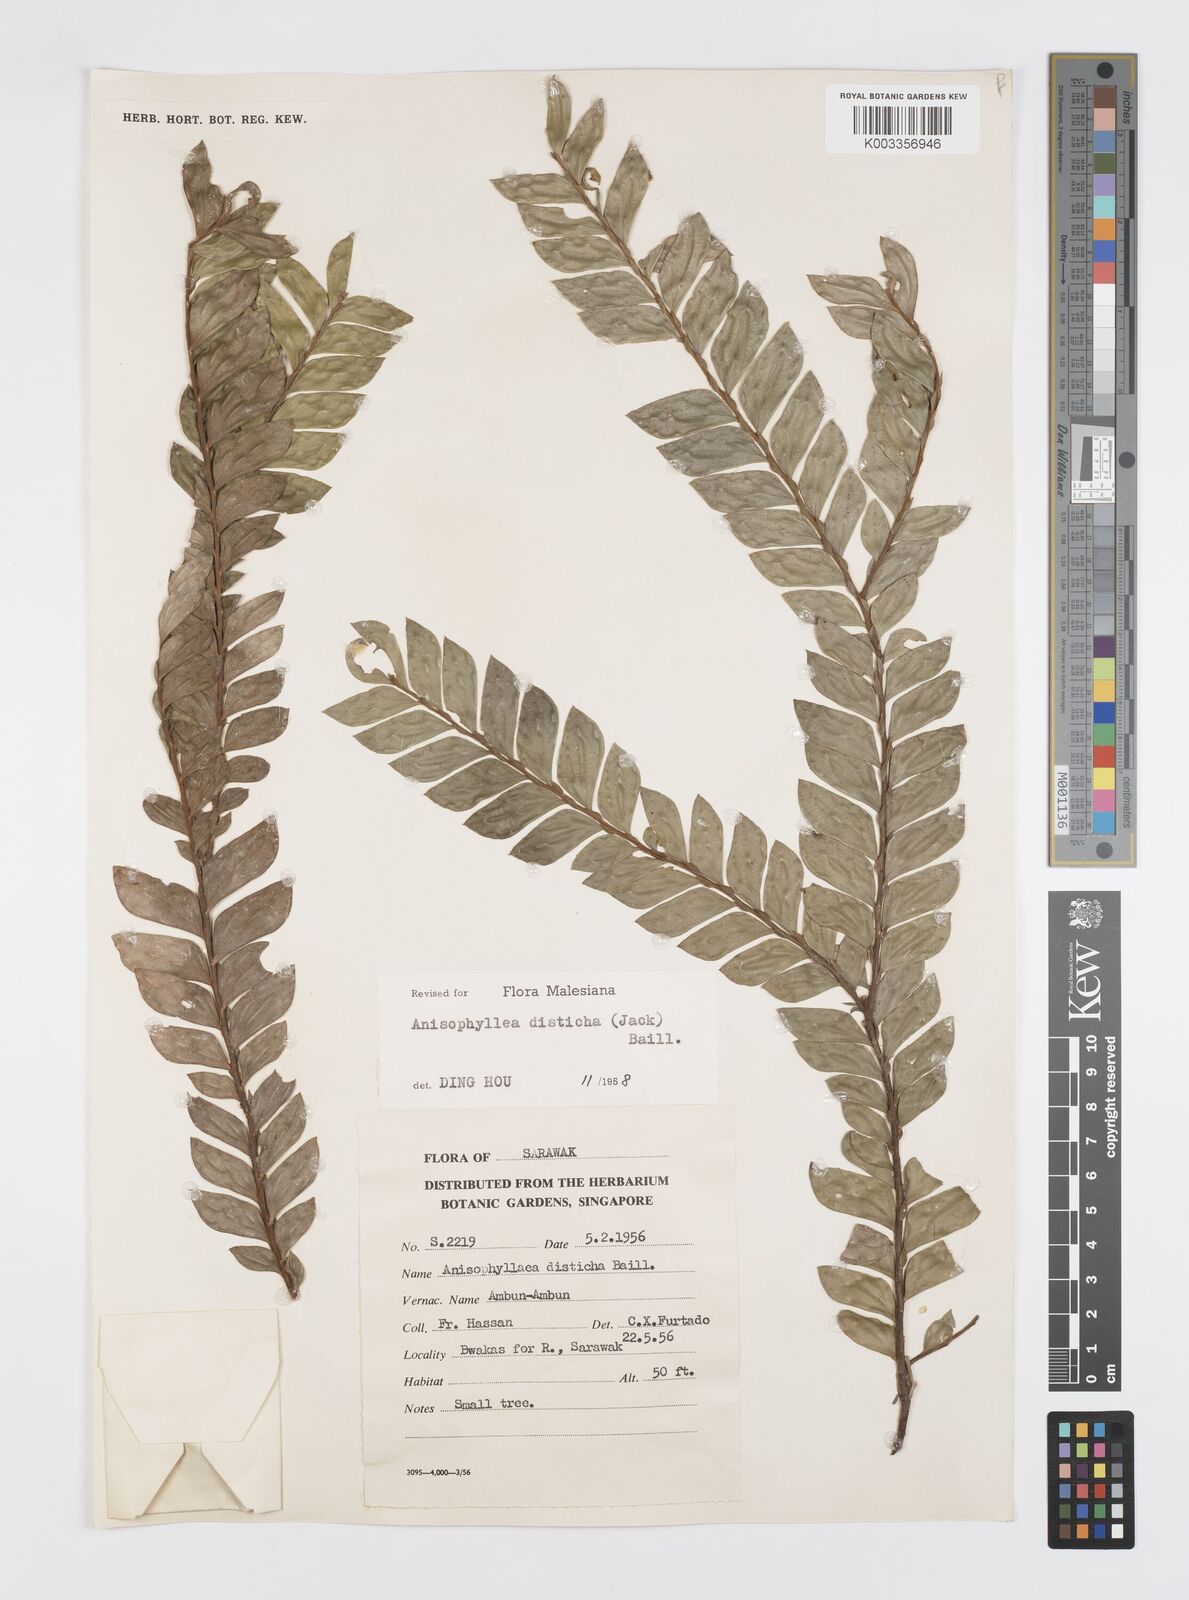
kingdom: Plantae
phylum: Tracheophyta
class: Magnoliopsida
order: Cucurbitales
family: Anisophylleaceae
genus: Anisophyllea
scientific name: Anisophyllea disticha
